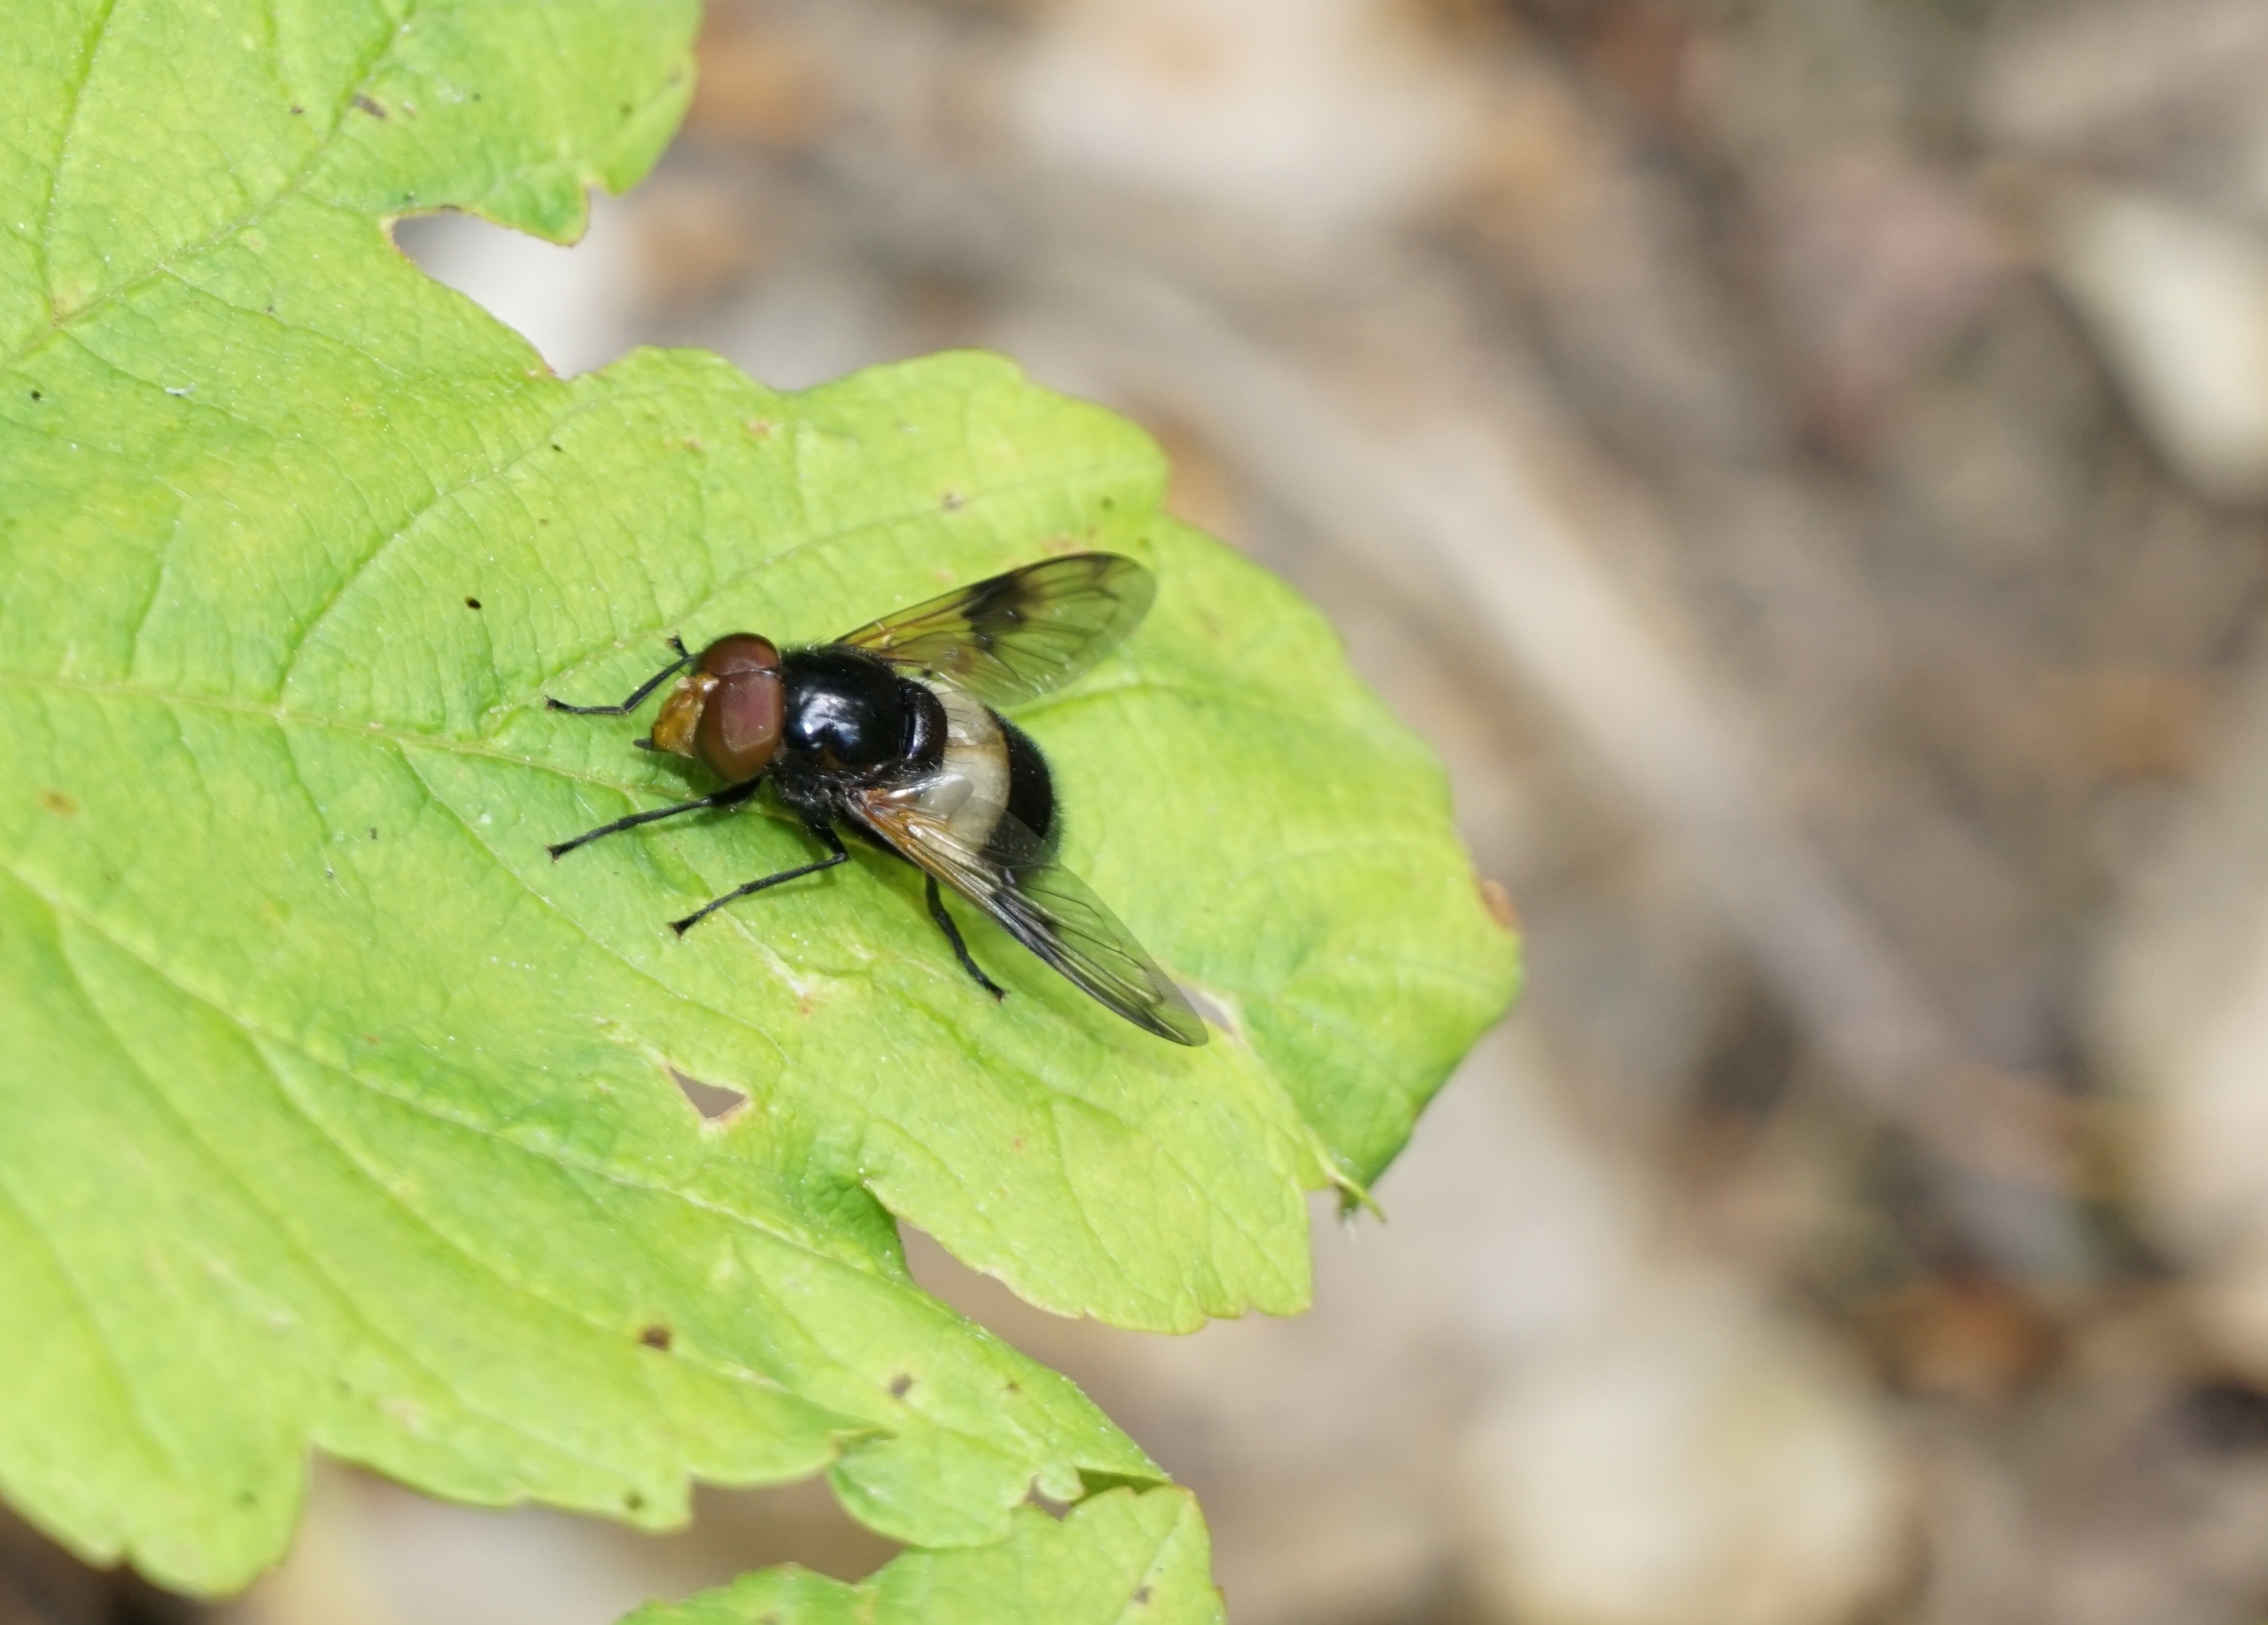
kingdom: Animalia
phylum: Arthropoda
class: Insecta
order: Diptera
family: Syrphidae
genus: Volucella
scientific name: Volucella pellucens
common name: Hvidbåndet humlesvirreflue
